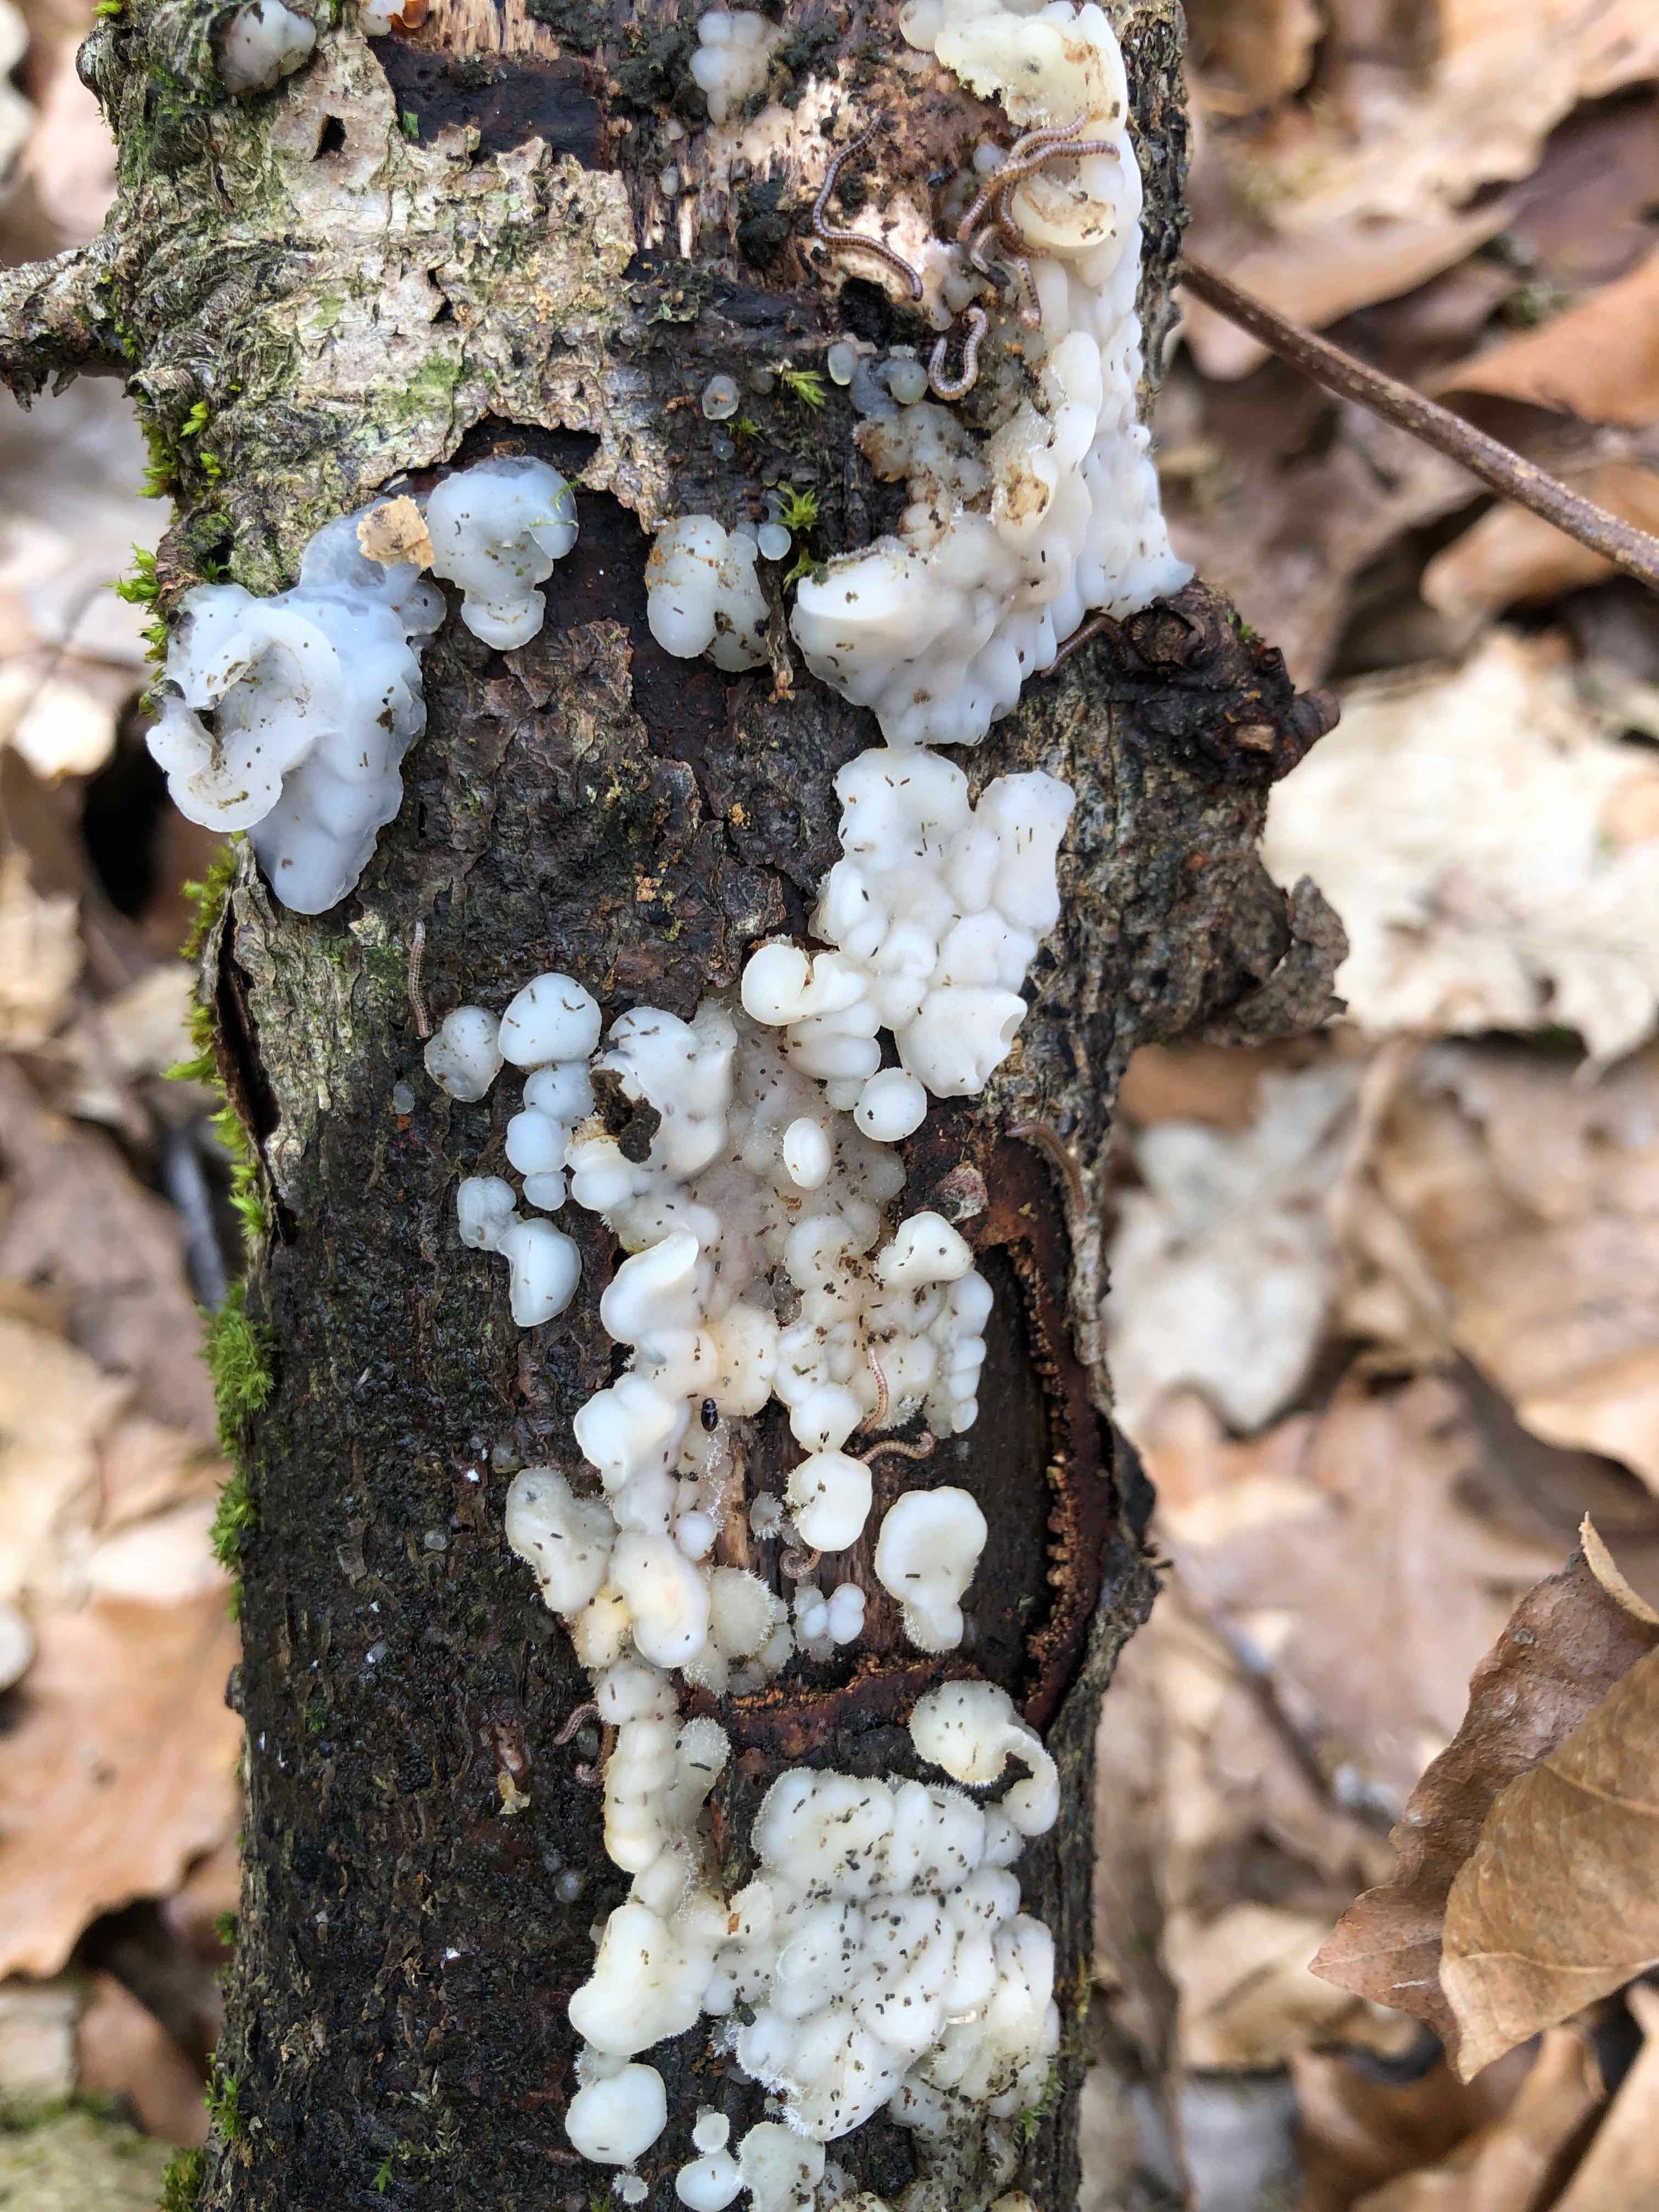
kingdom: Fungi
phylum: Basidiomycota
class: Agaricomycetes
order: Auriculariales
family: Auriculariaceae
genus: Exidia
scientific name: Exidia thuretiana
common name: hvidlig bævretop
